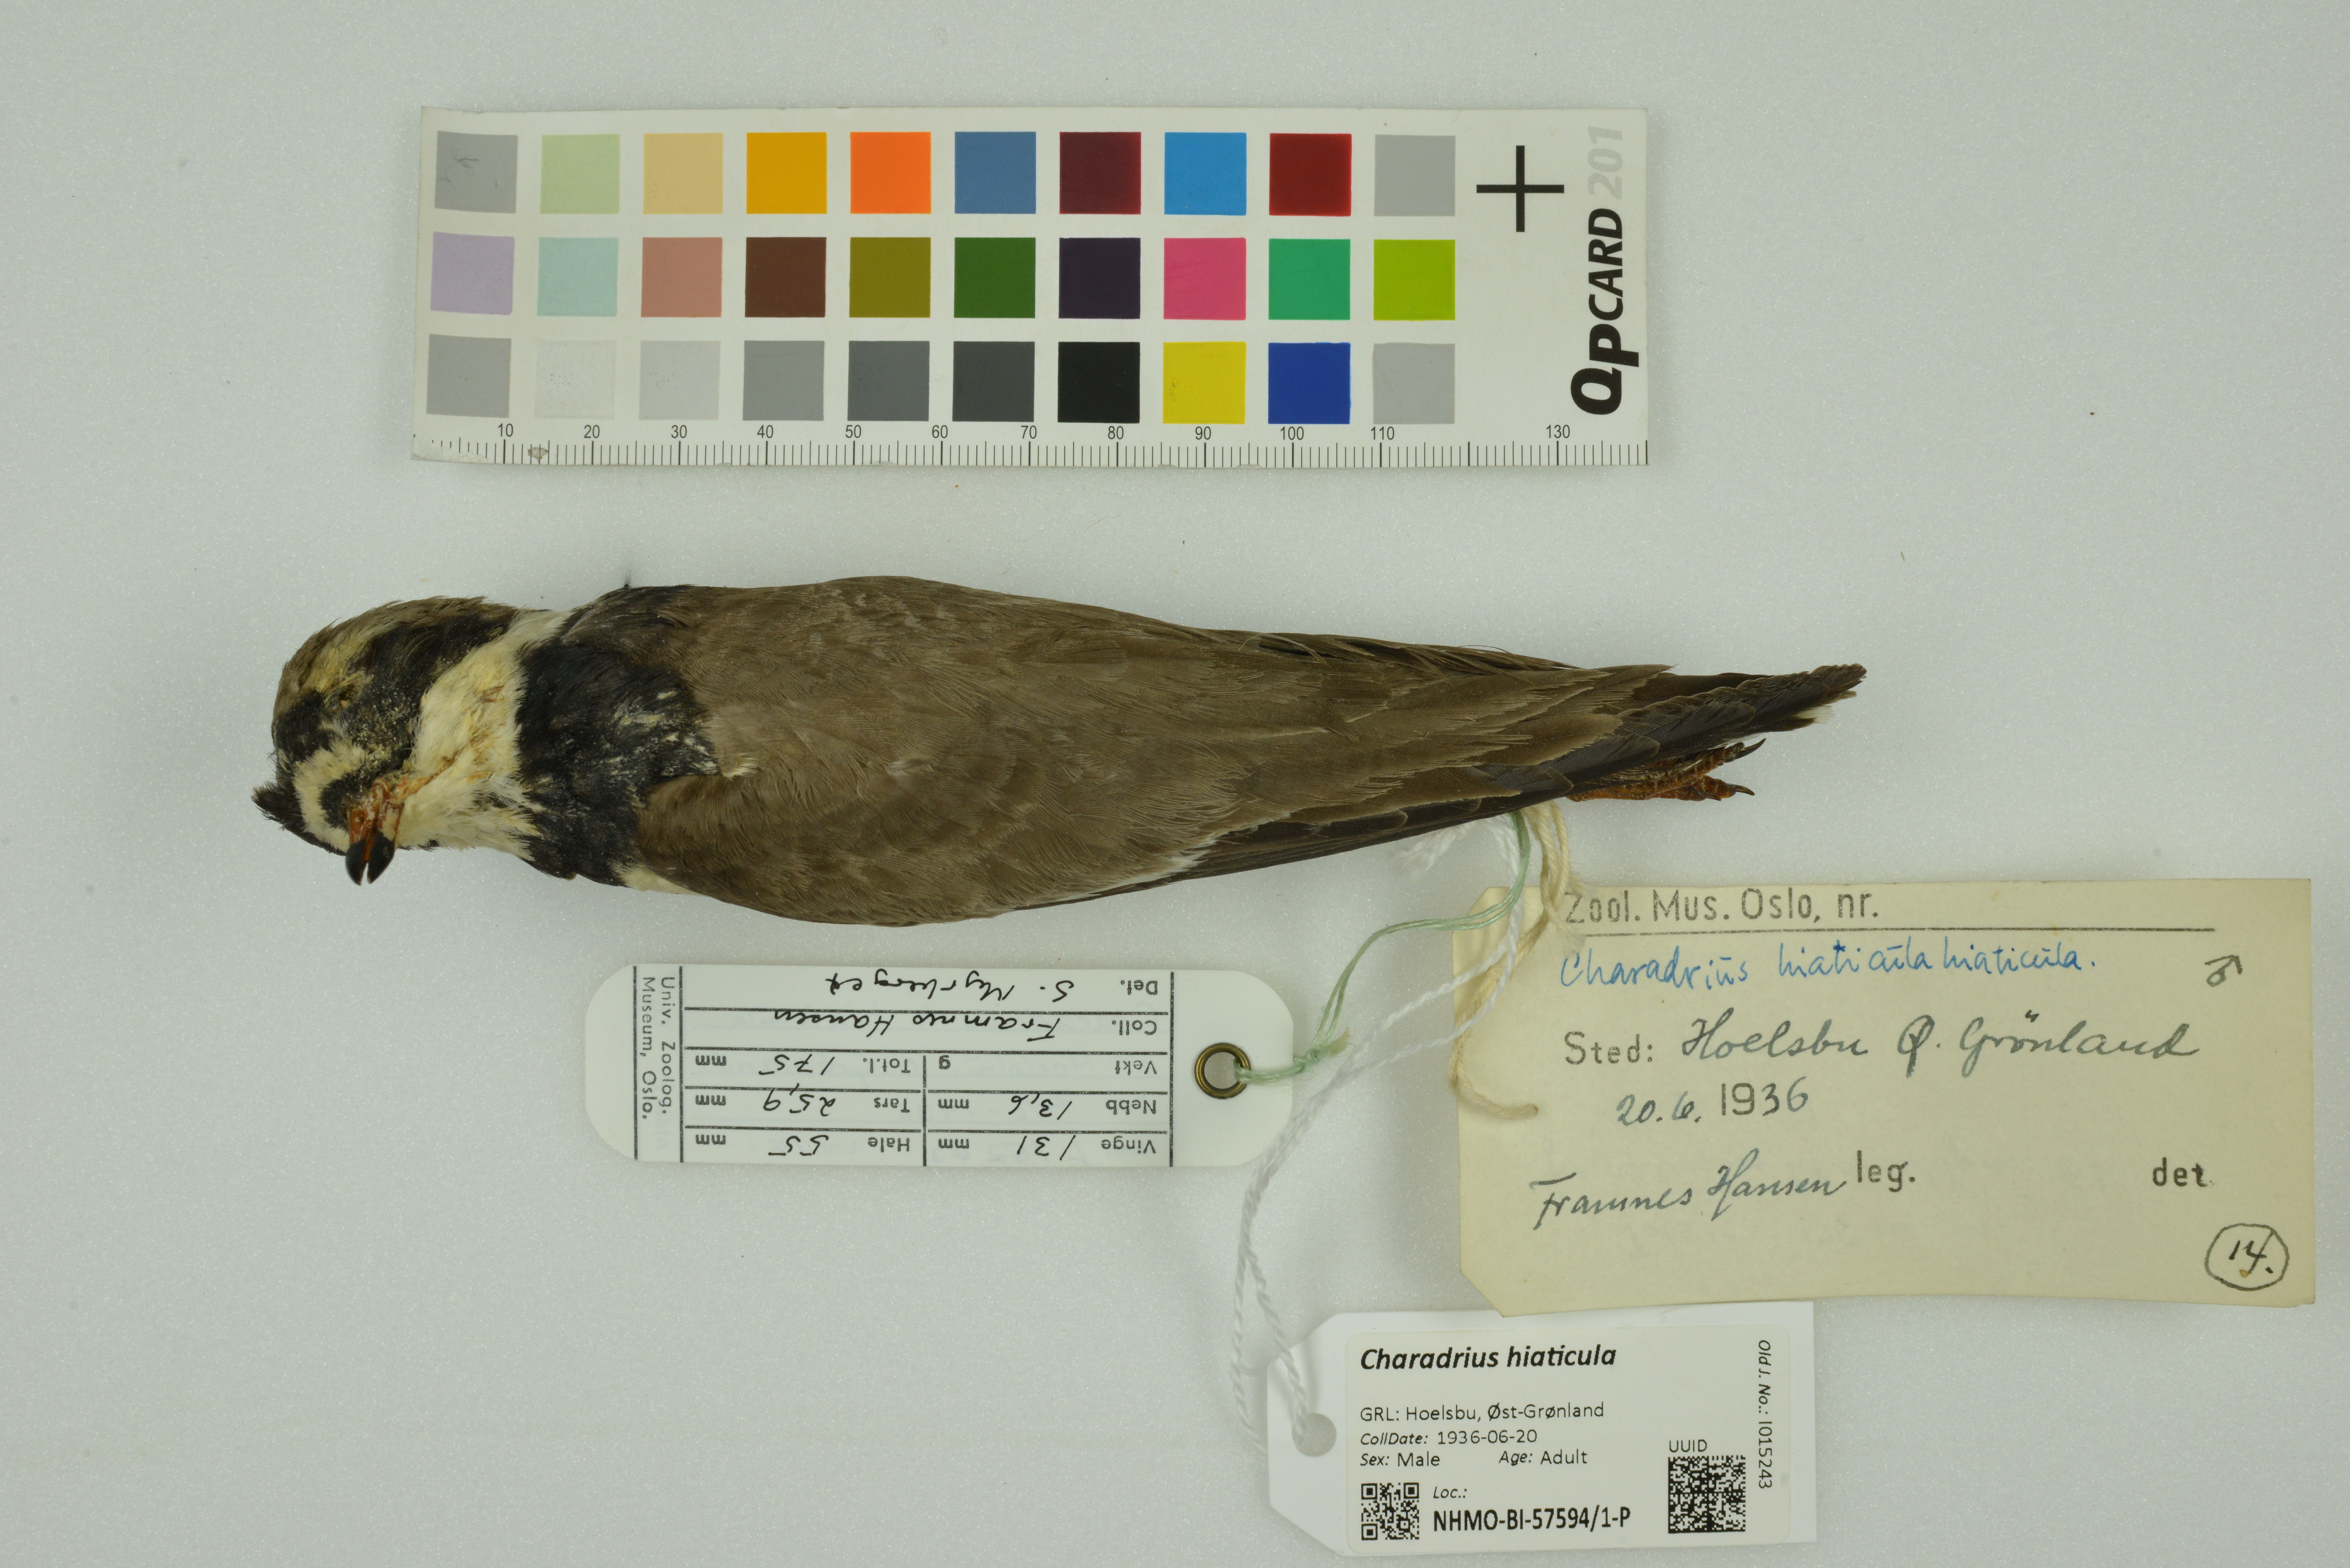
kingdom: Animalia
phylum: Chordata
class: Aves
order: Charadriiformes
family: Charadriidae
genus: Charadrius
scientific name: Charadrius hiaticula
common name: Common ringed plover
